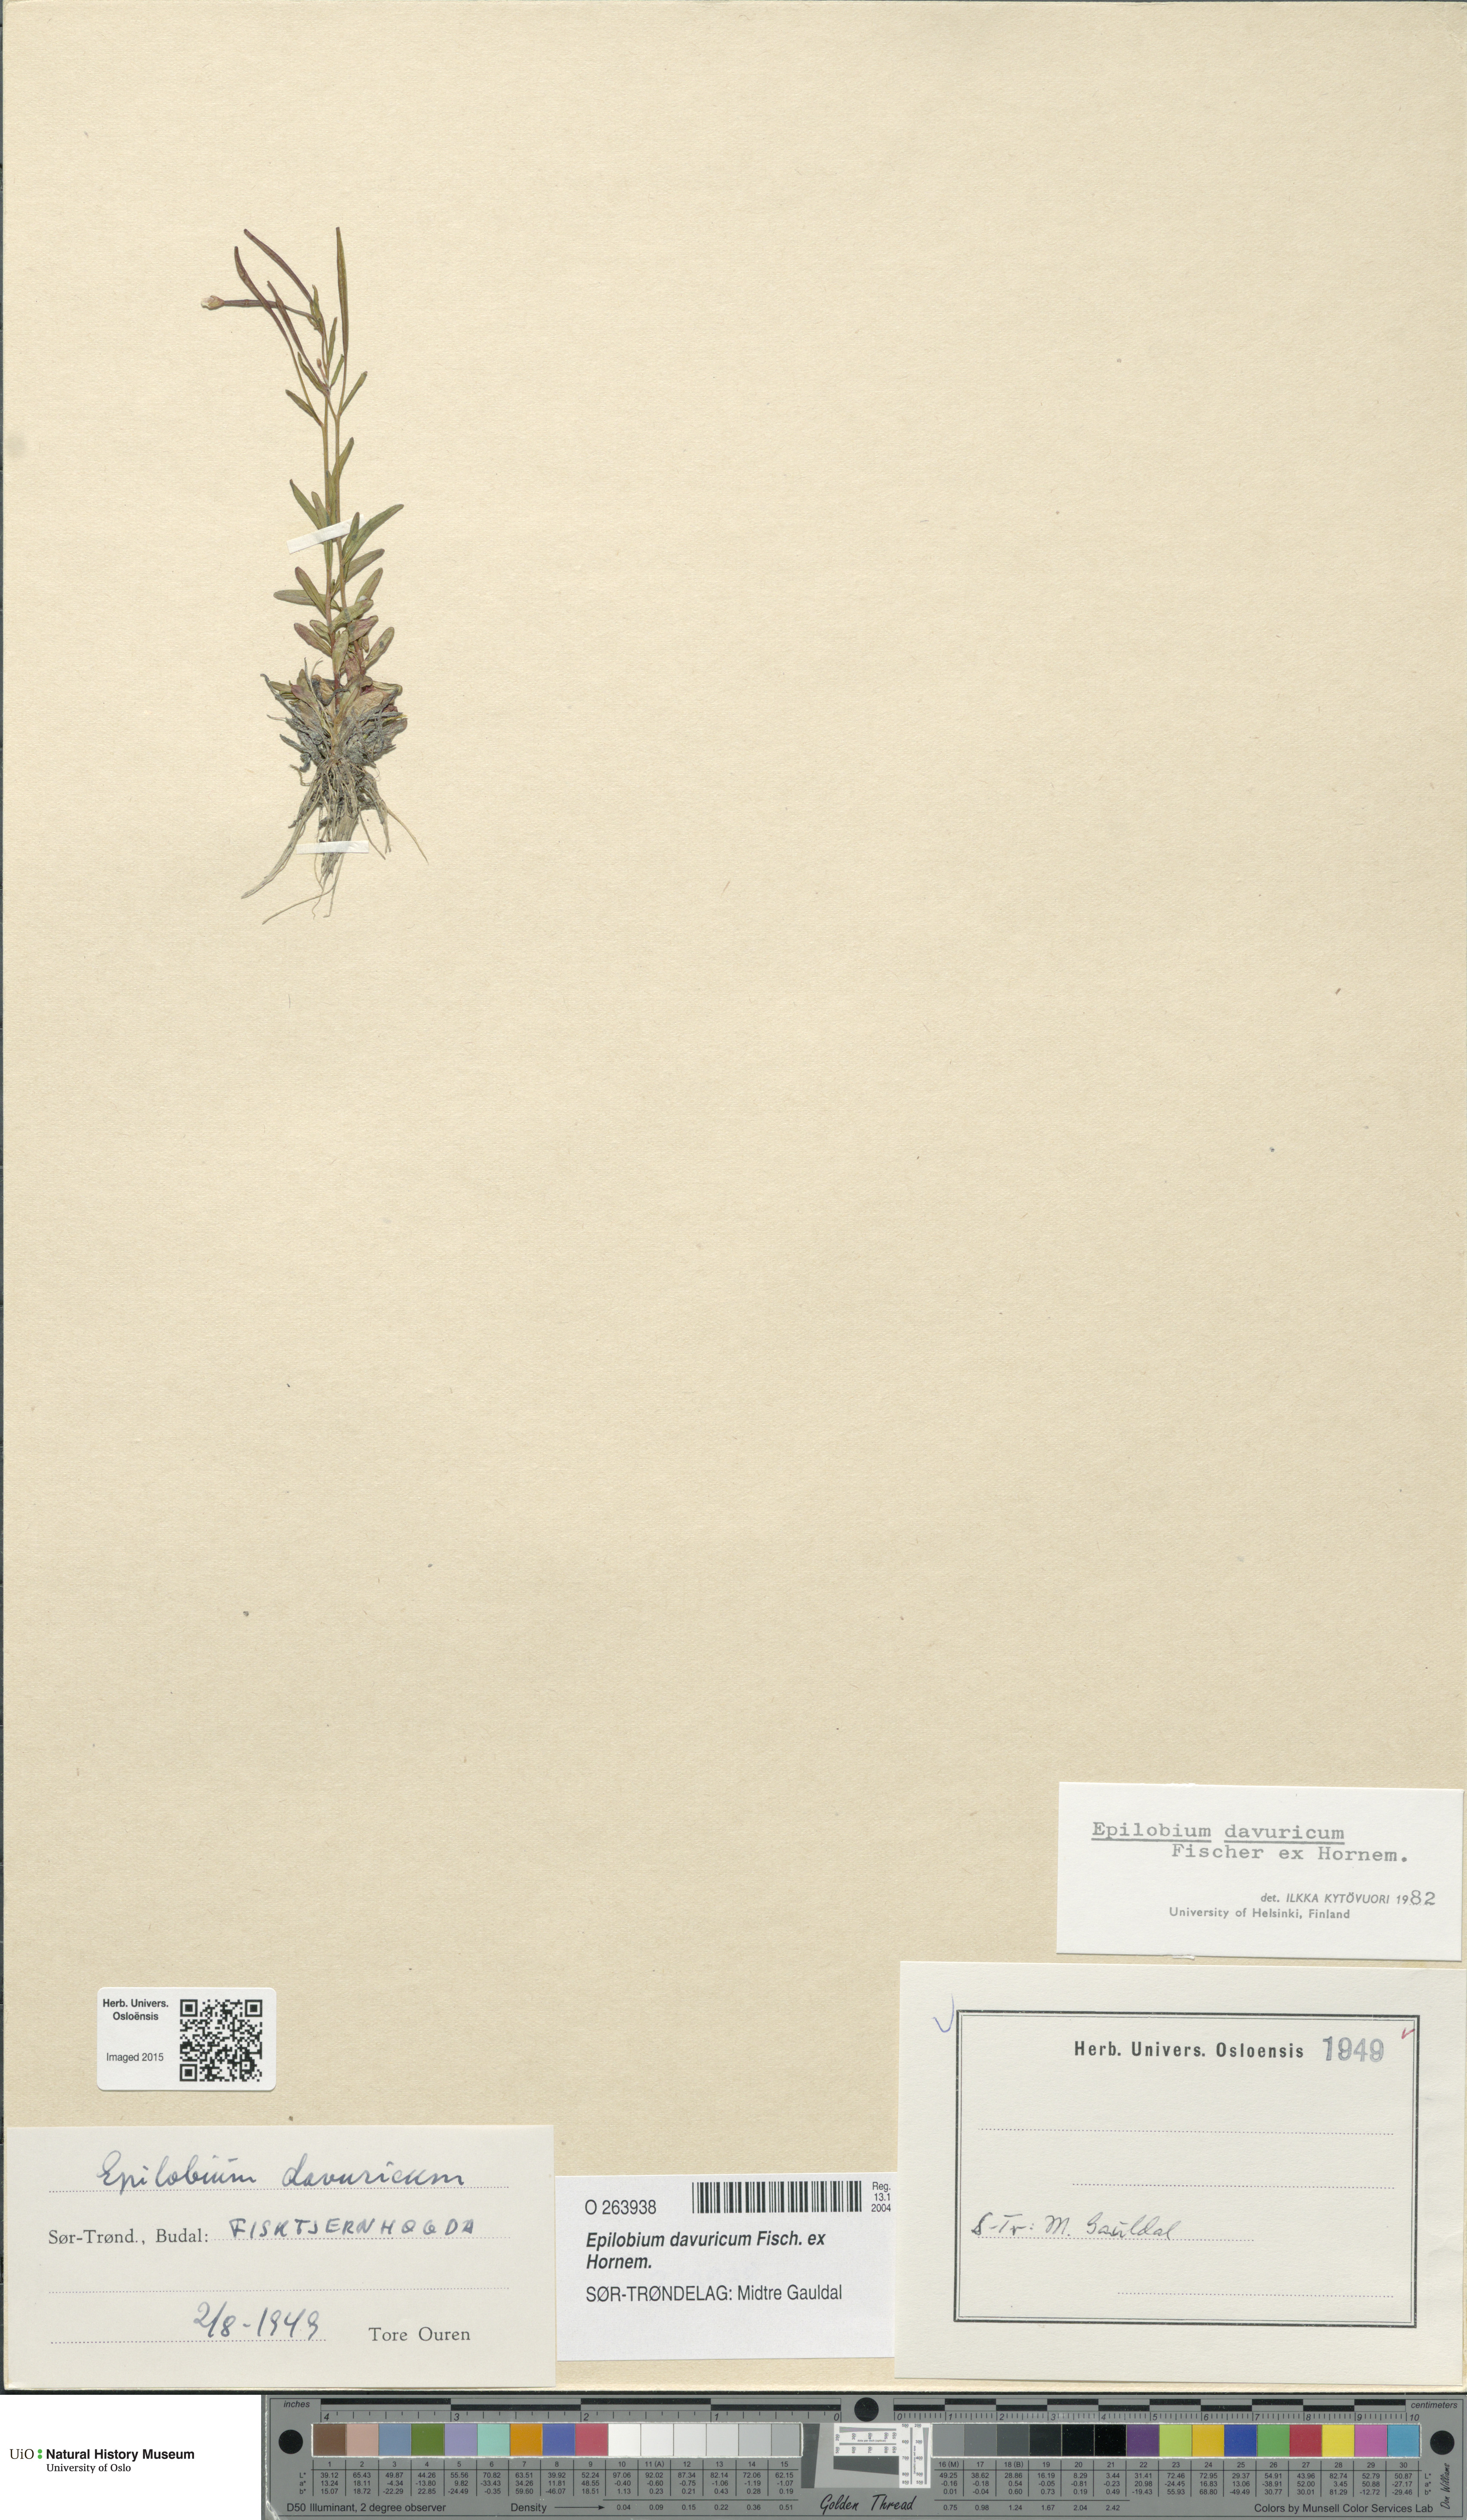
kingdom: Plantae
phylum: Tracheophyta
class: Magnoliopsida
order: Myrtales
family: Onagraceae
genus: Epilobium
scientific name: Epilobium davuricum
